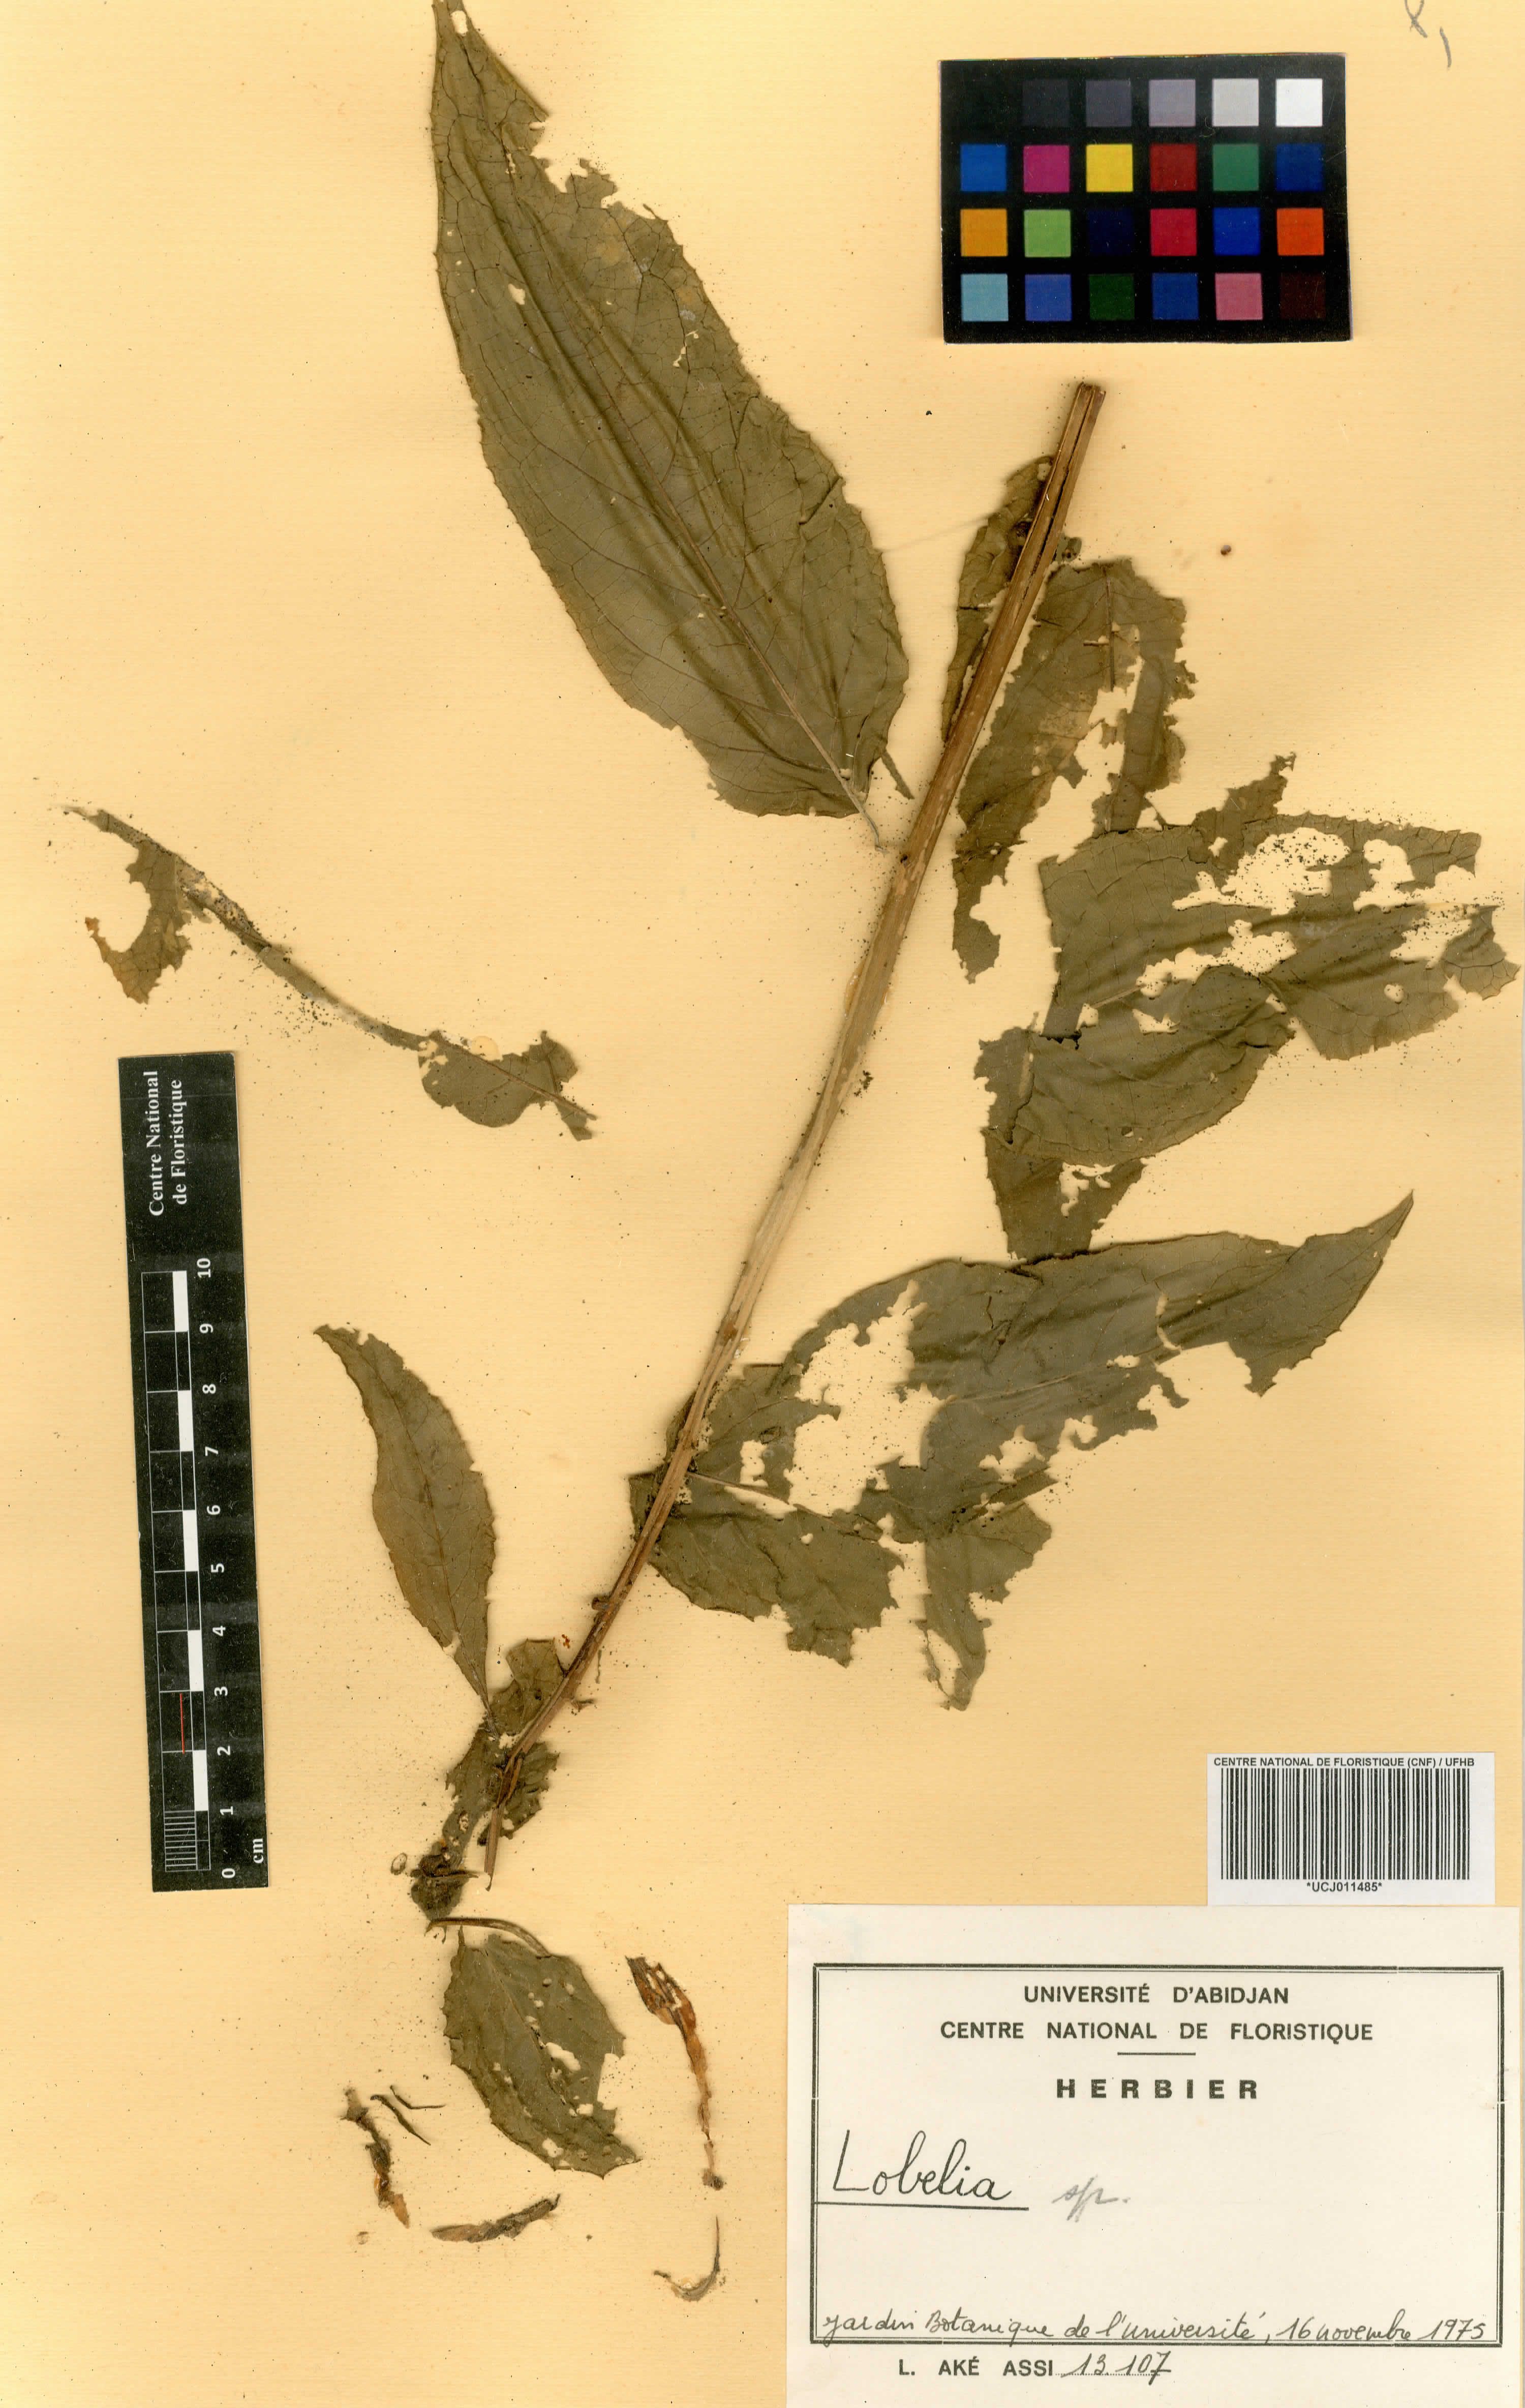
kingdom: Plantae
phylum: Tracheophyta
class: Magnoliopsida
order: Asterales
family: Campanulaceae
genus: Lobelia
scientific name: Lobelia
